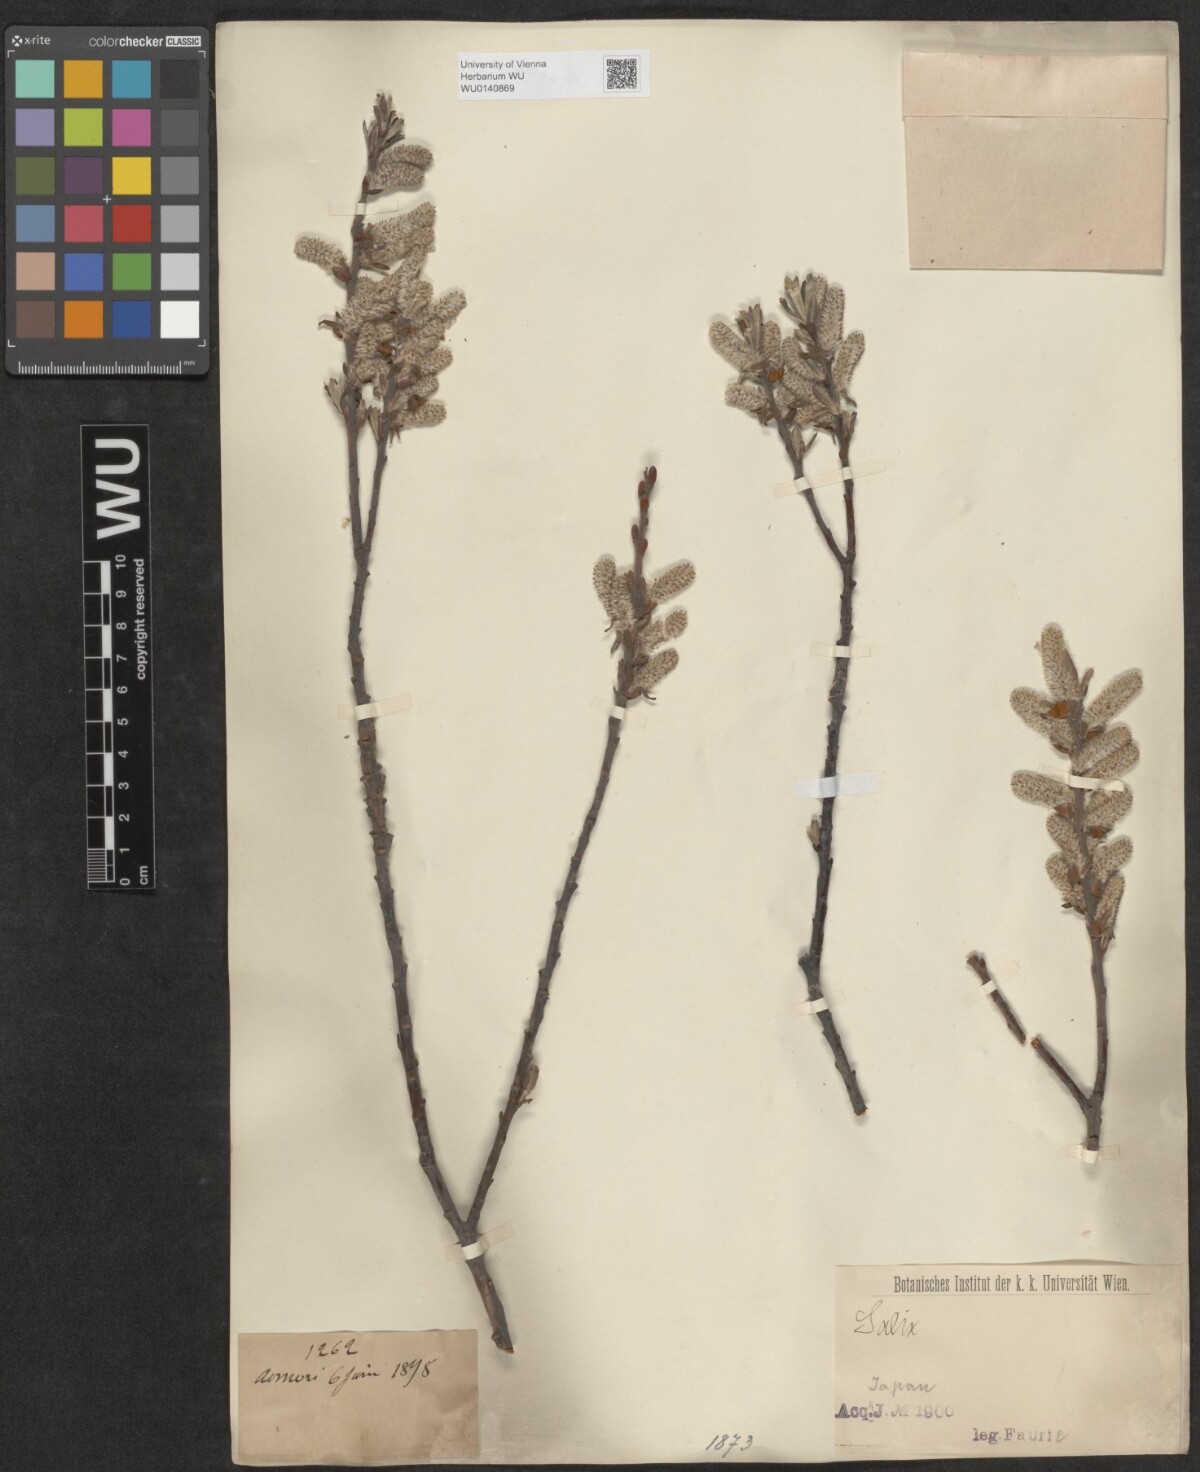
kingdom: Plantae
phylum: Tracheophyta
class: Magnoliopsida
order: Malpighiales
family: Salicaceae
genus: Salix
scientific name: Salix
